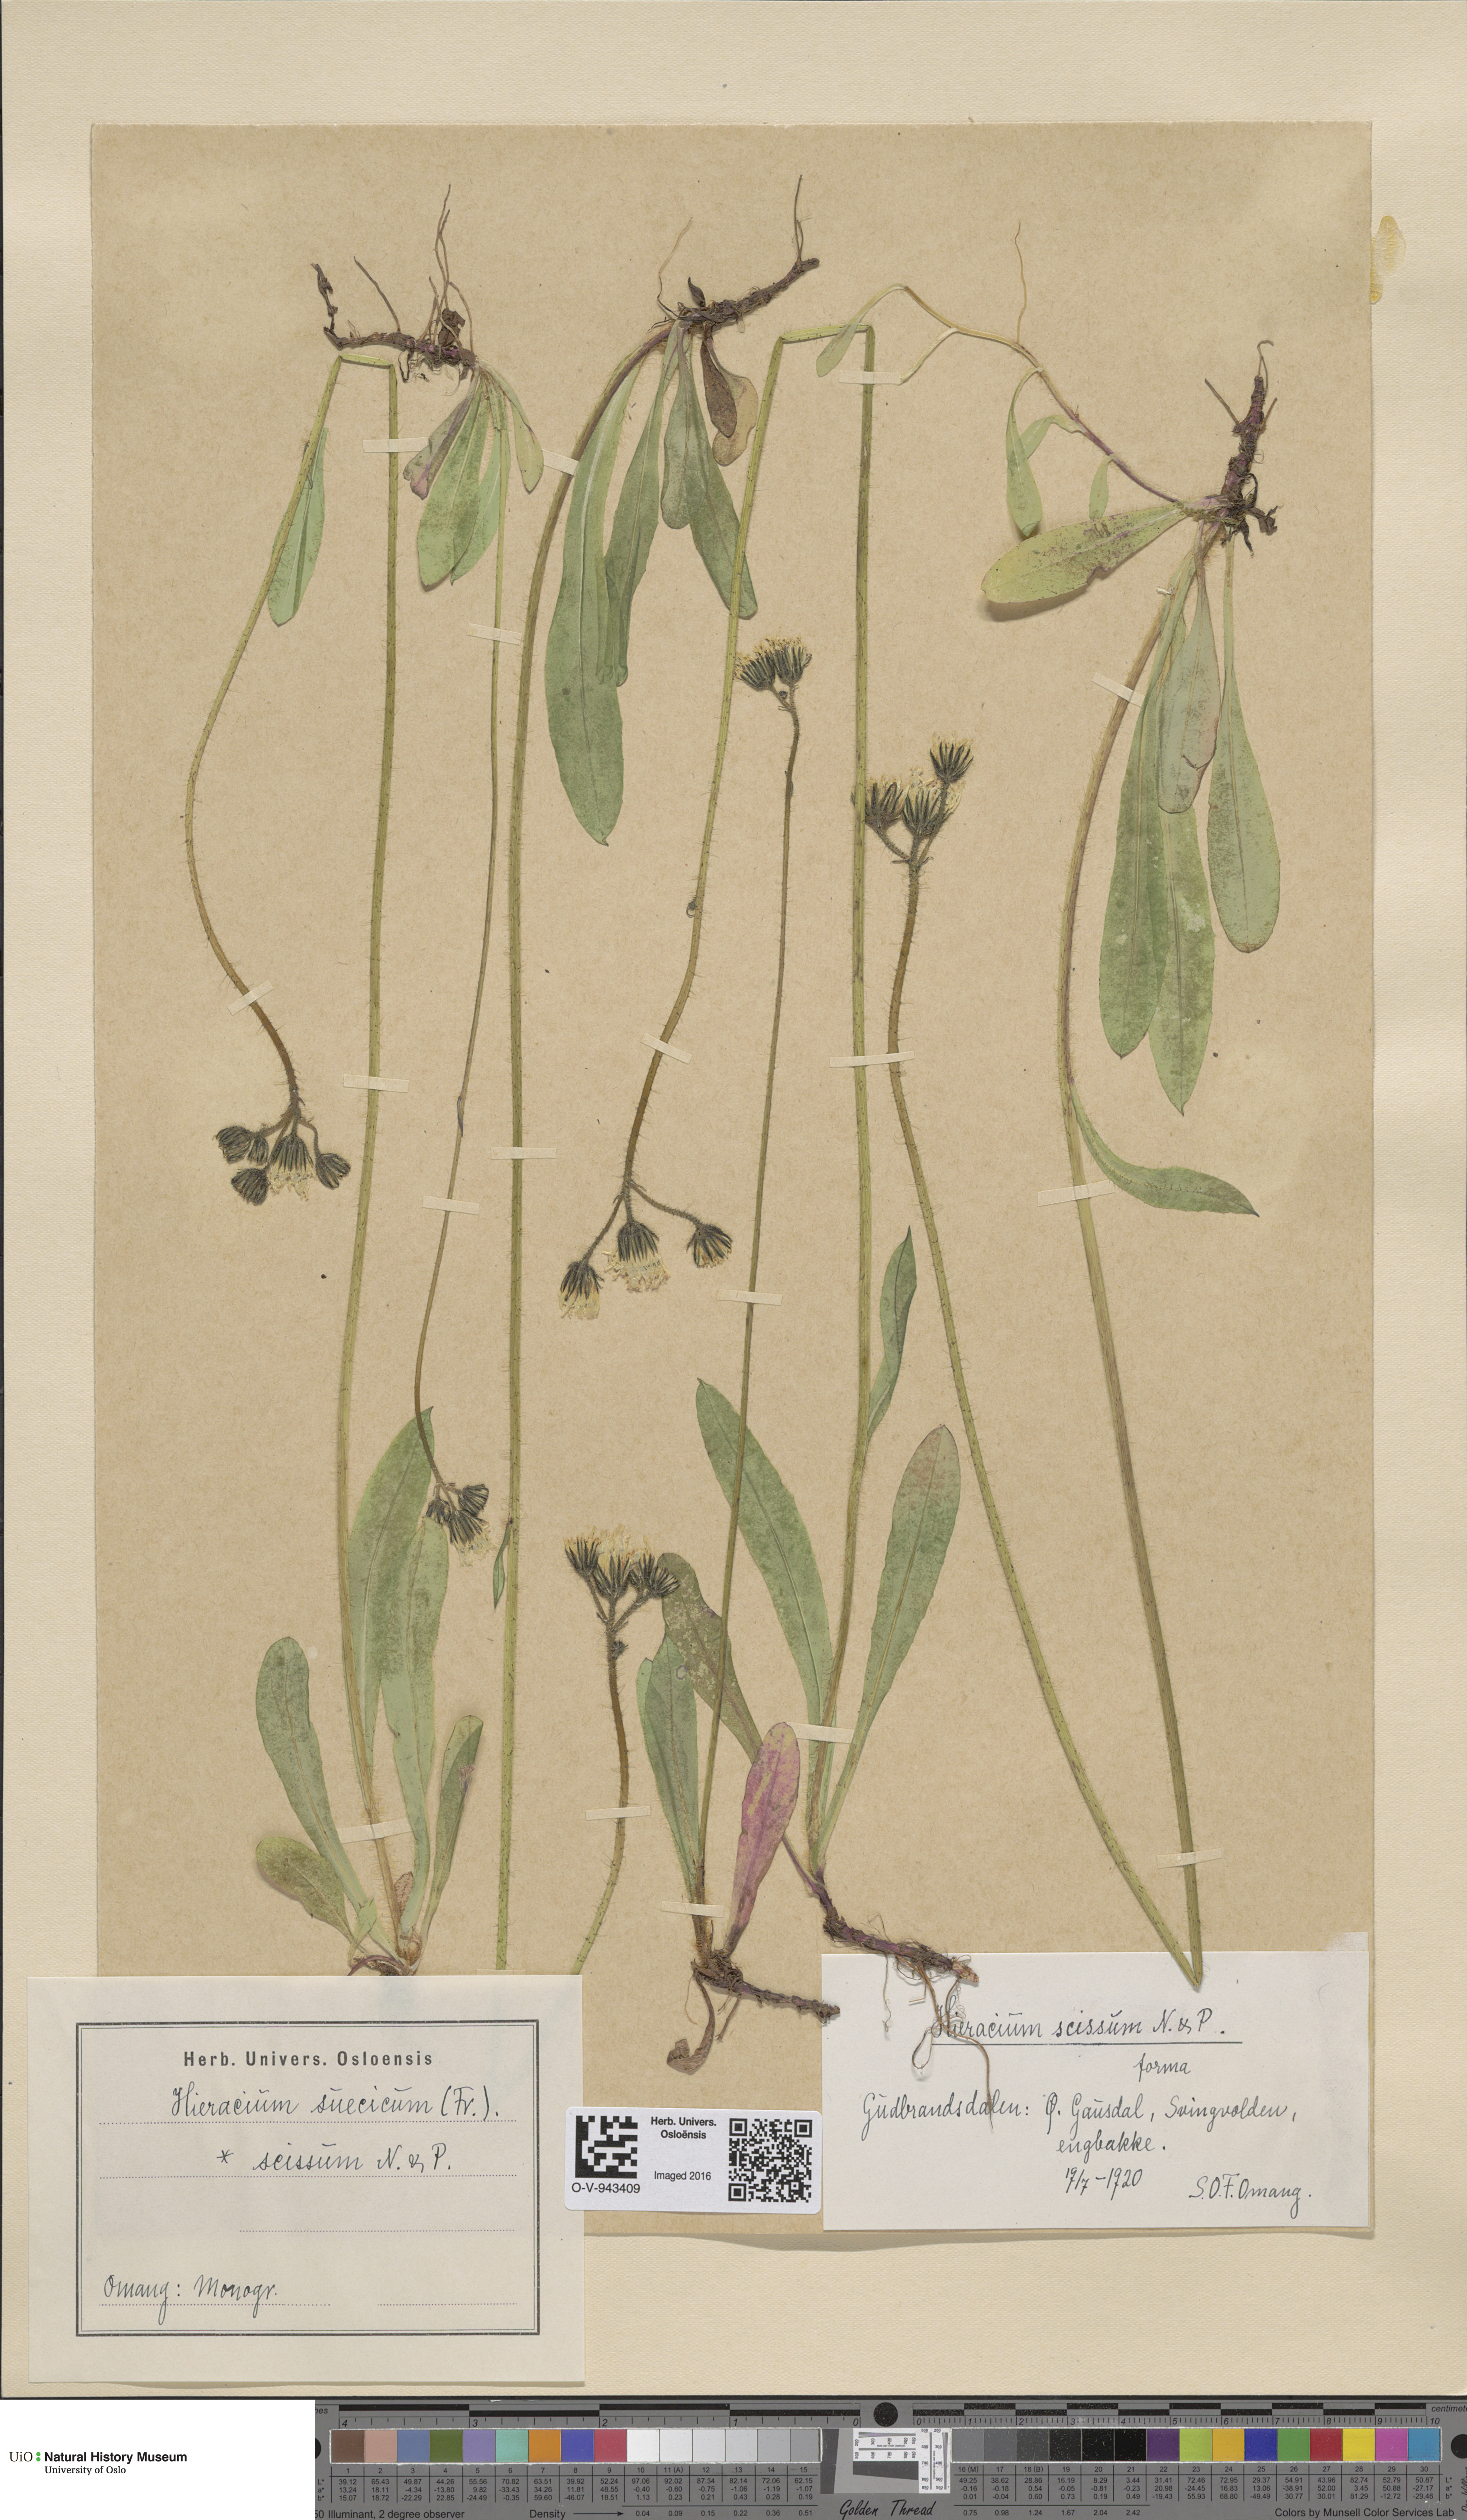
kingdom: Plantae
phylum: Tracheophyta
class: Magnoliopsida
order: Asterales
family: Asteraceae
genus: Pilosella
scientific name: Pilosella dubia
